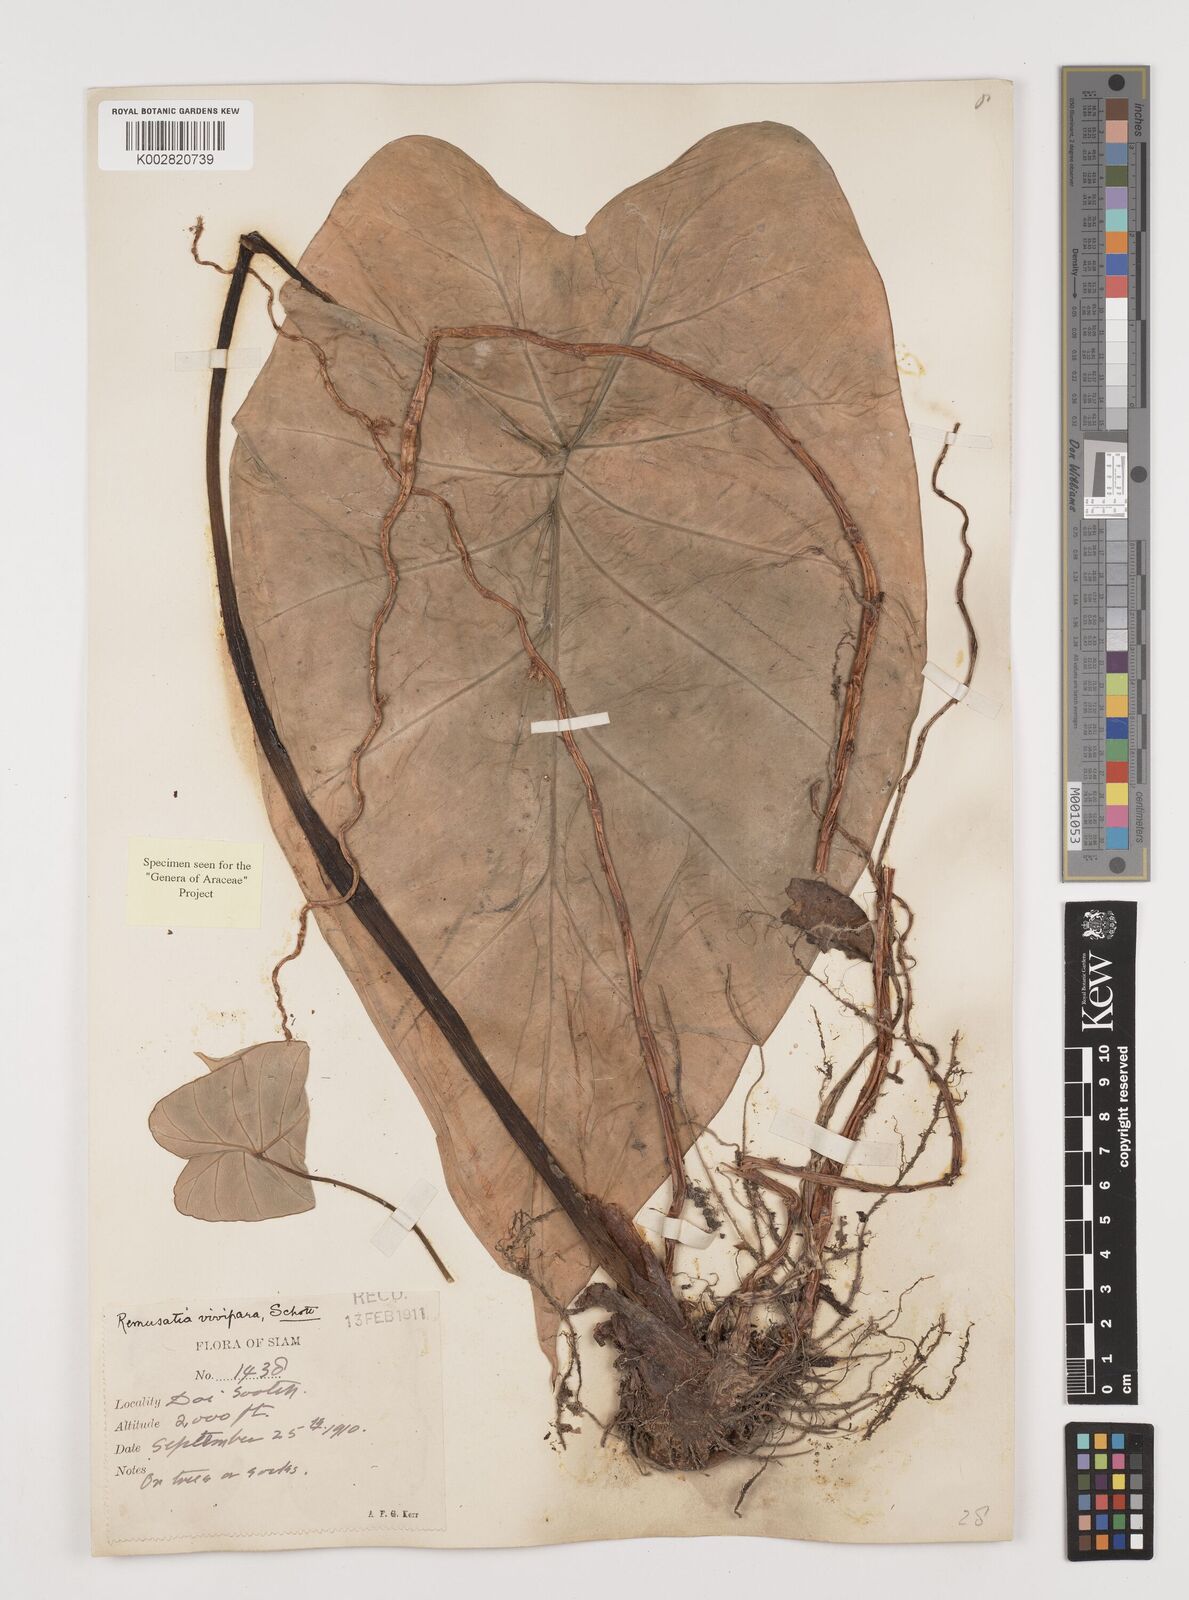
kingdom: Plantae
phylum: Tracheophyta
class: Liliopsida
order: Alismatales
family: Araceae
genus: Remusatia
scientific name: Remusatia vivipara
